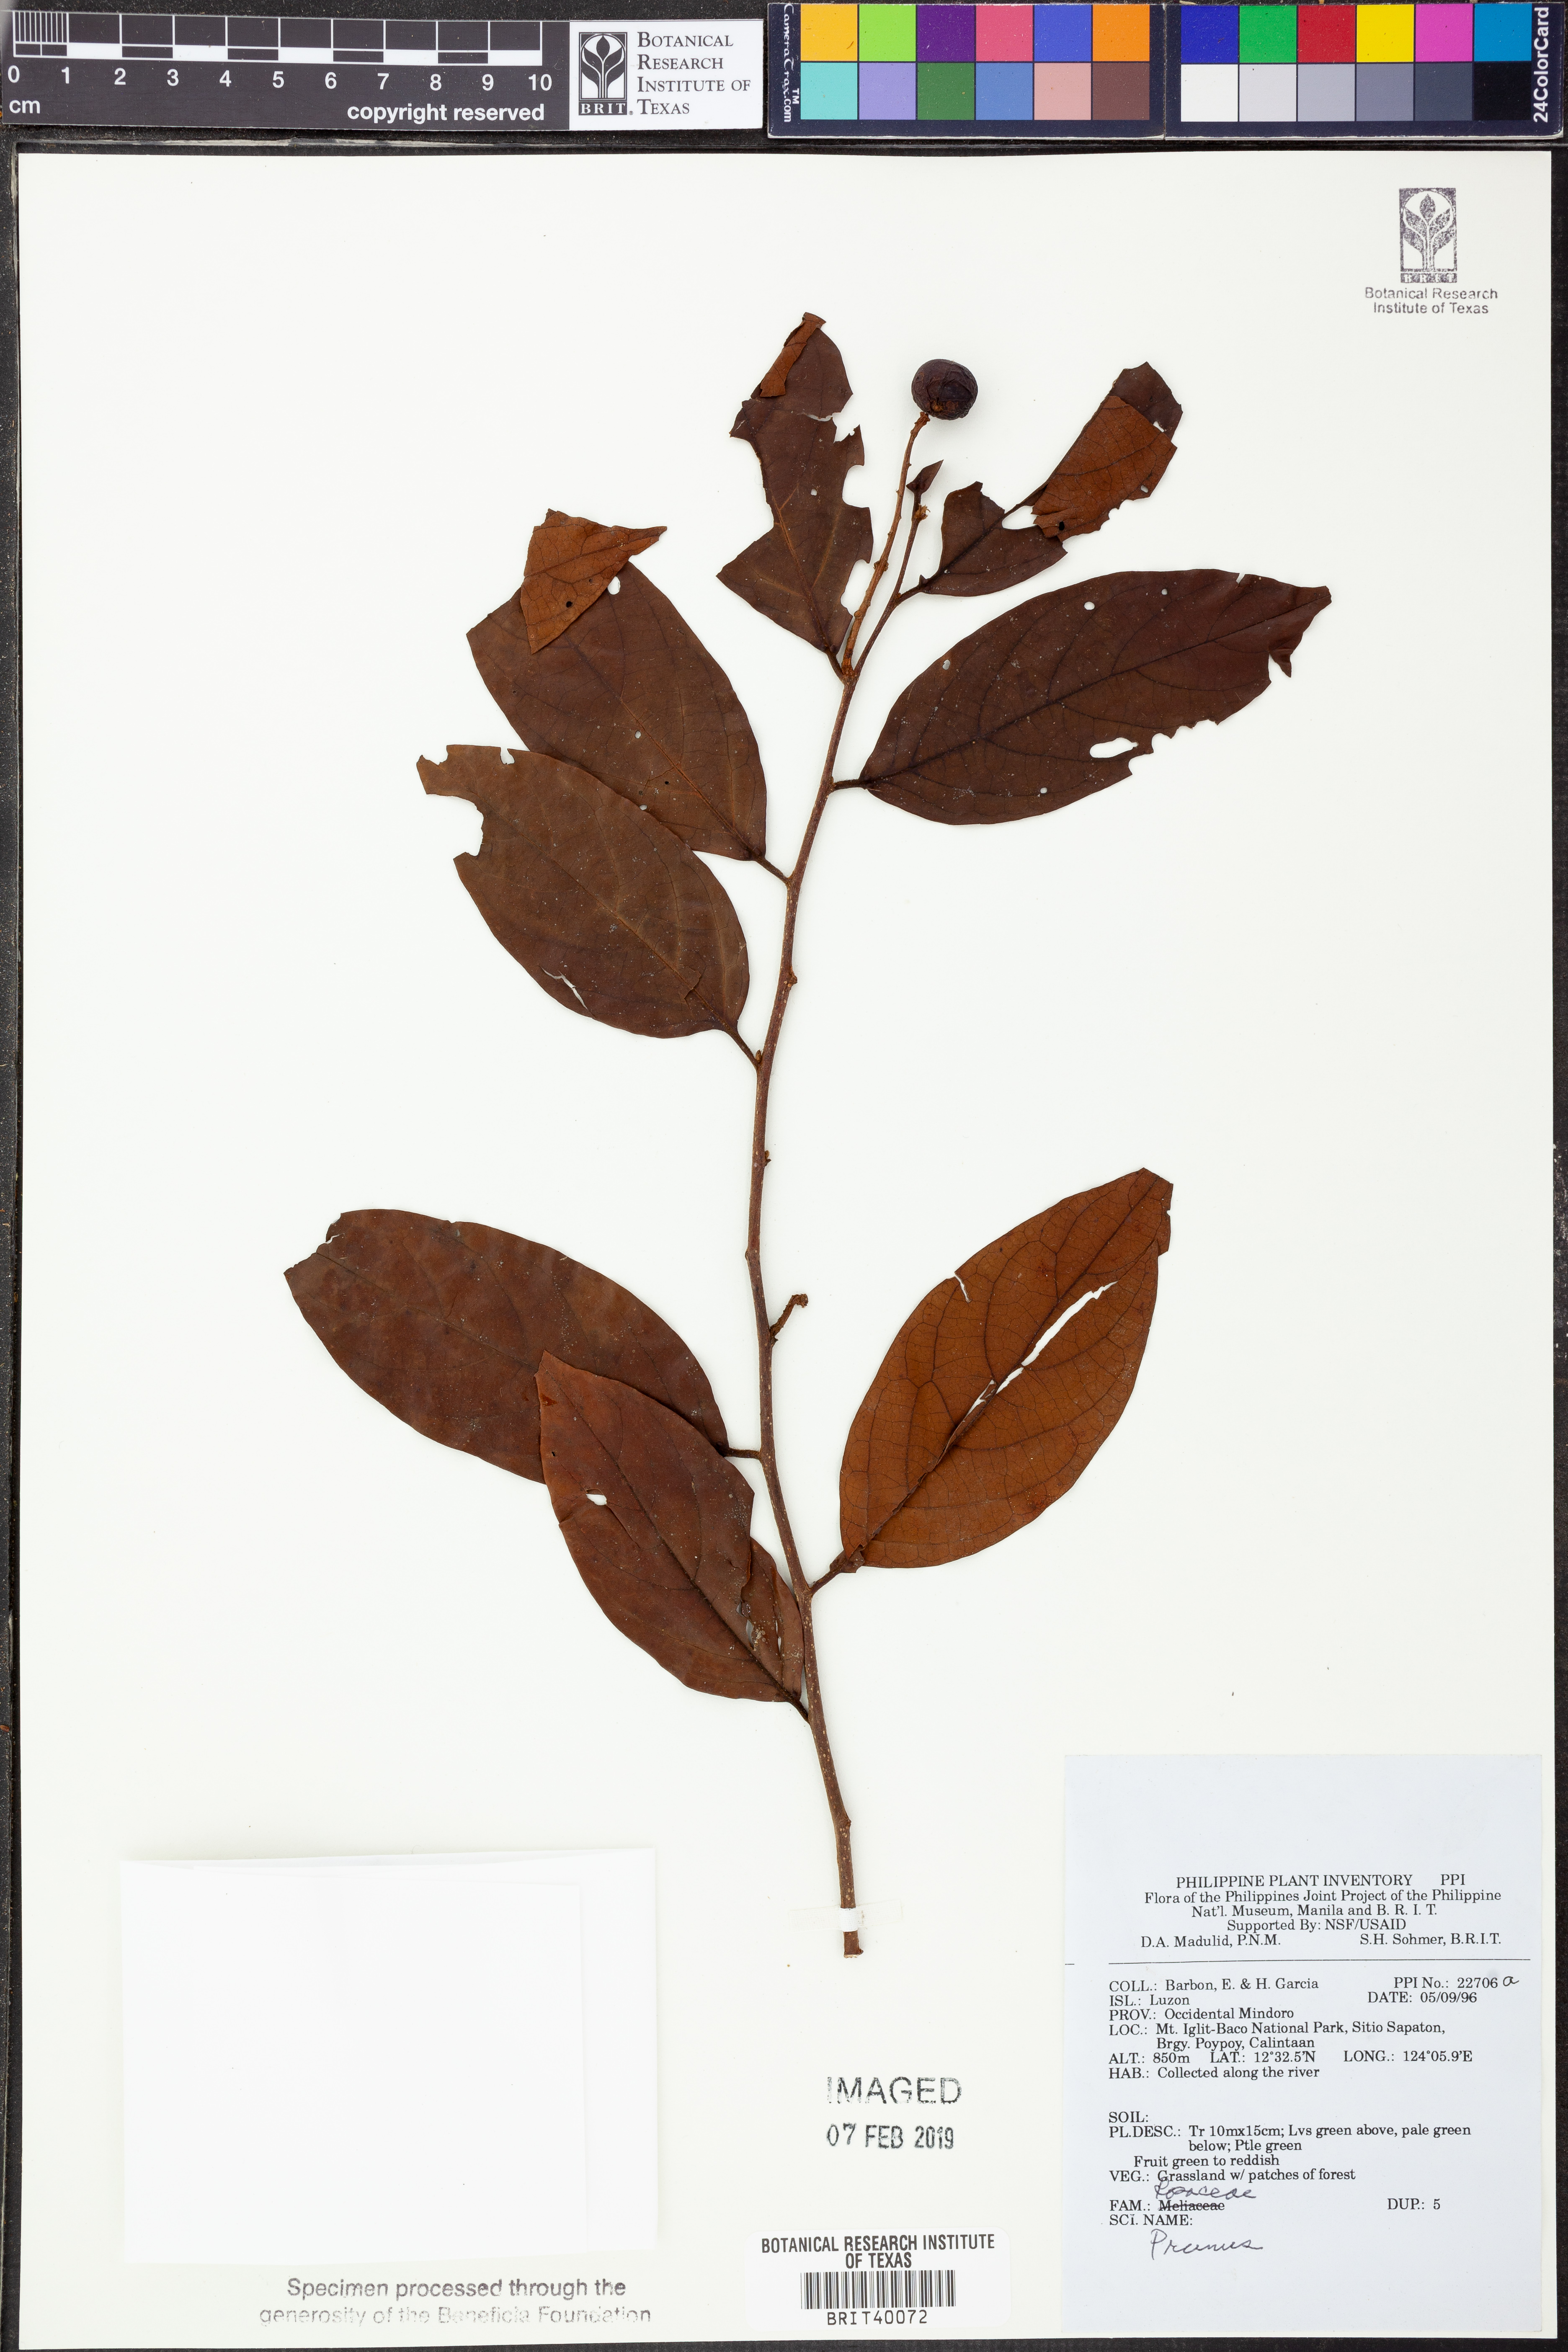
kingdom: Plantae
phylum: Tracheophyta
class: Magnoliopsida
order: Rosales
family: Rosaceae
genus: Prunus
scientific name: Prunus
